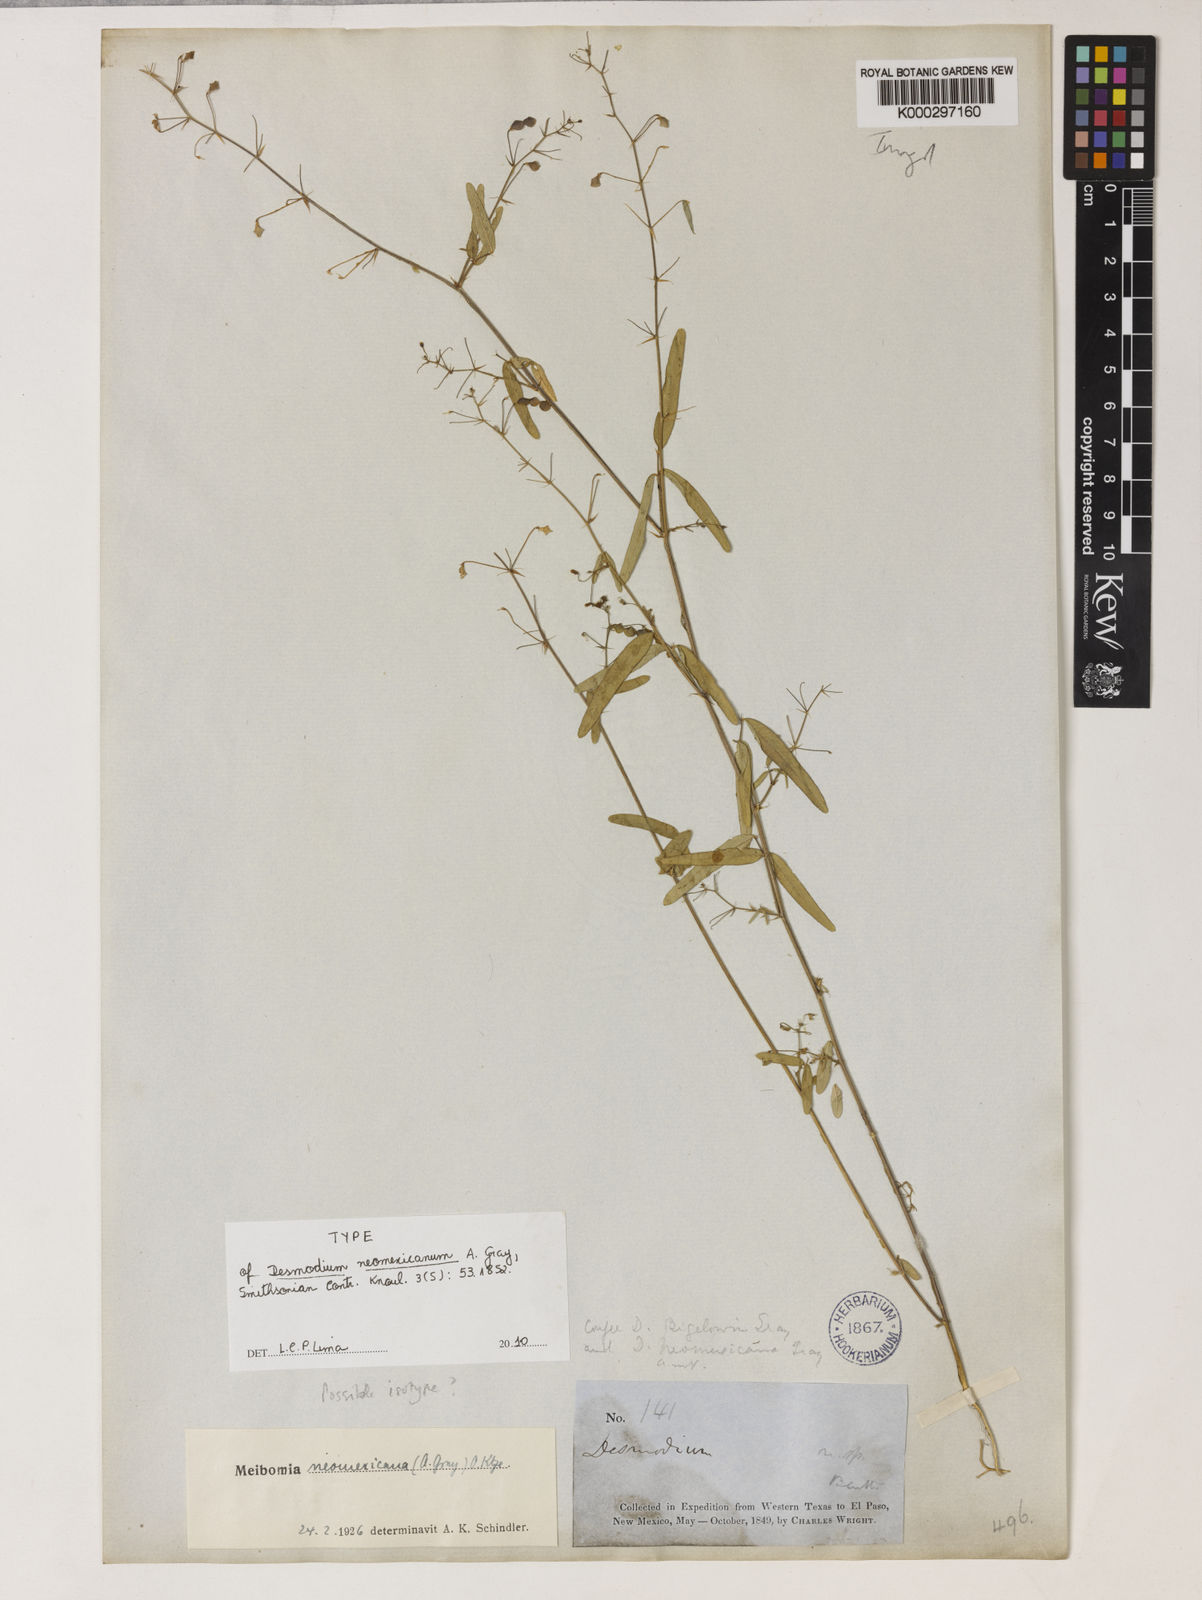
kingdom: Plantae
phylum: Tracheophyta
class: Magnoliopsida
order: Fabales
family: Fabaceae
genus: Desmodium
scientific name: Desmodium procumbens
